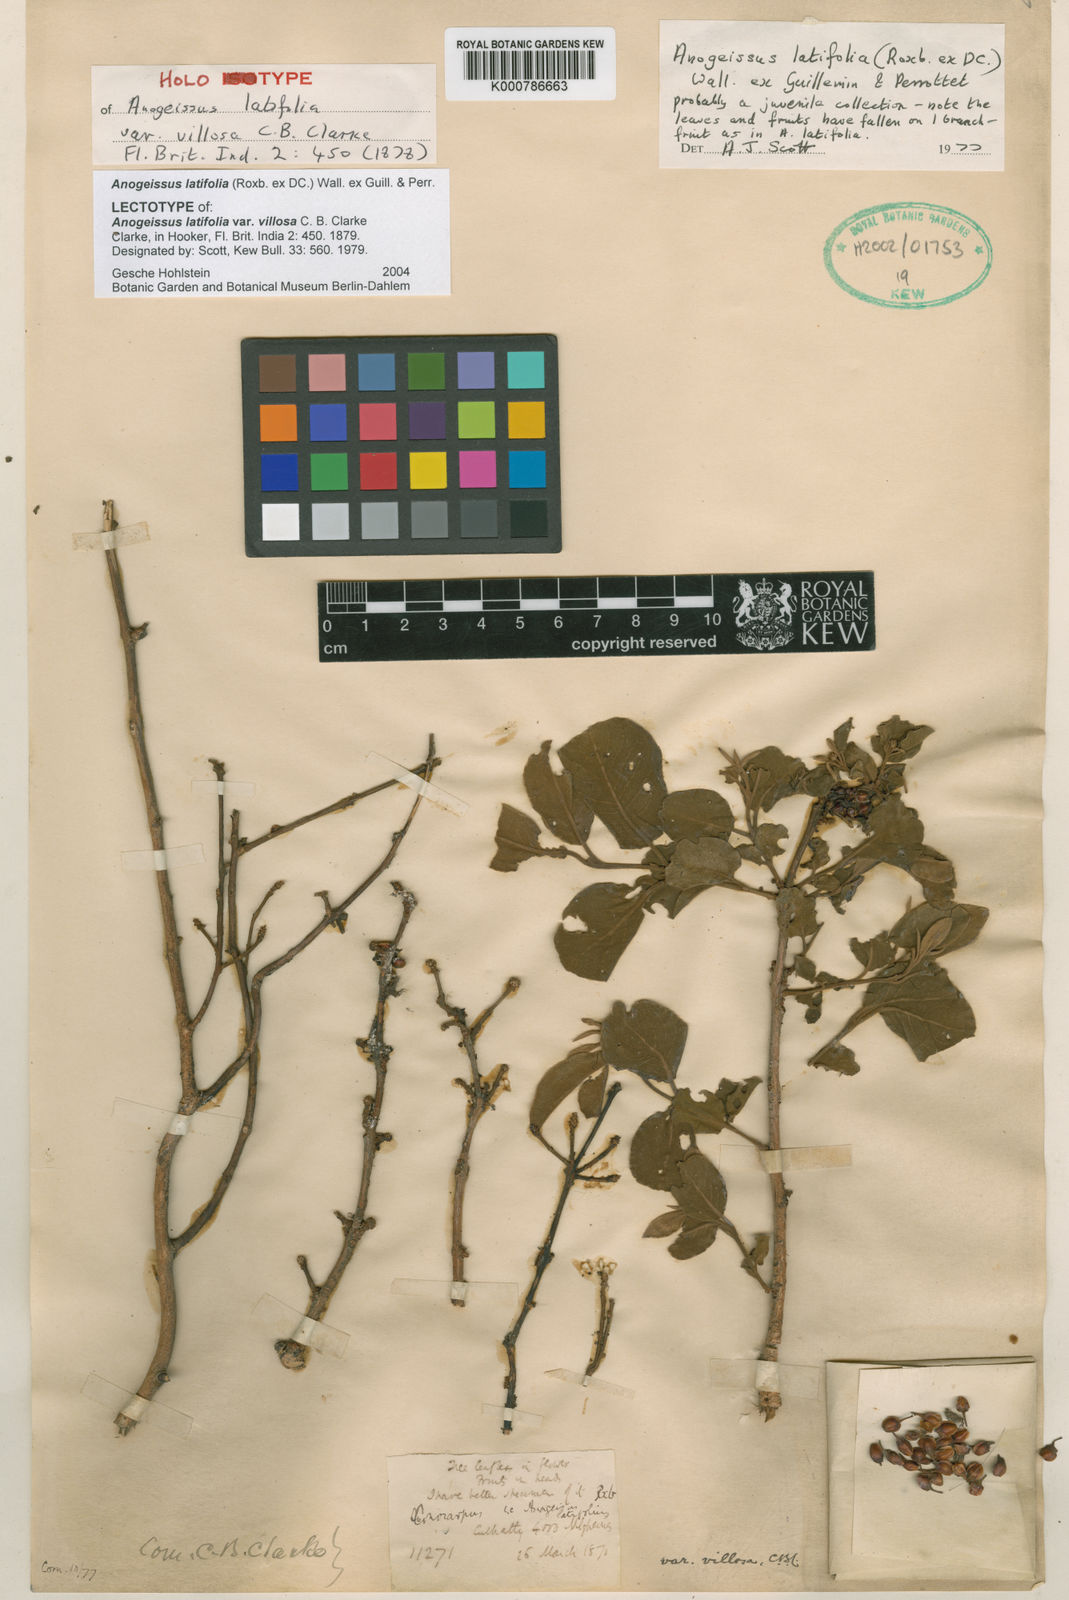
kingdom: Plantae
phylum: Tracheophyta
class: Magnoliopsida
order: Myrtales
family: Combretaceae
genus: Terminalia
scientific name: Terminalia anogeissiana
